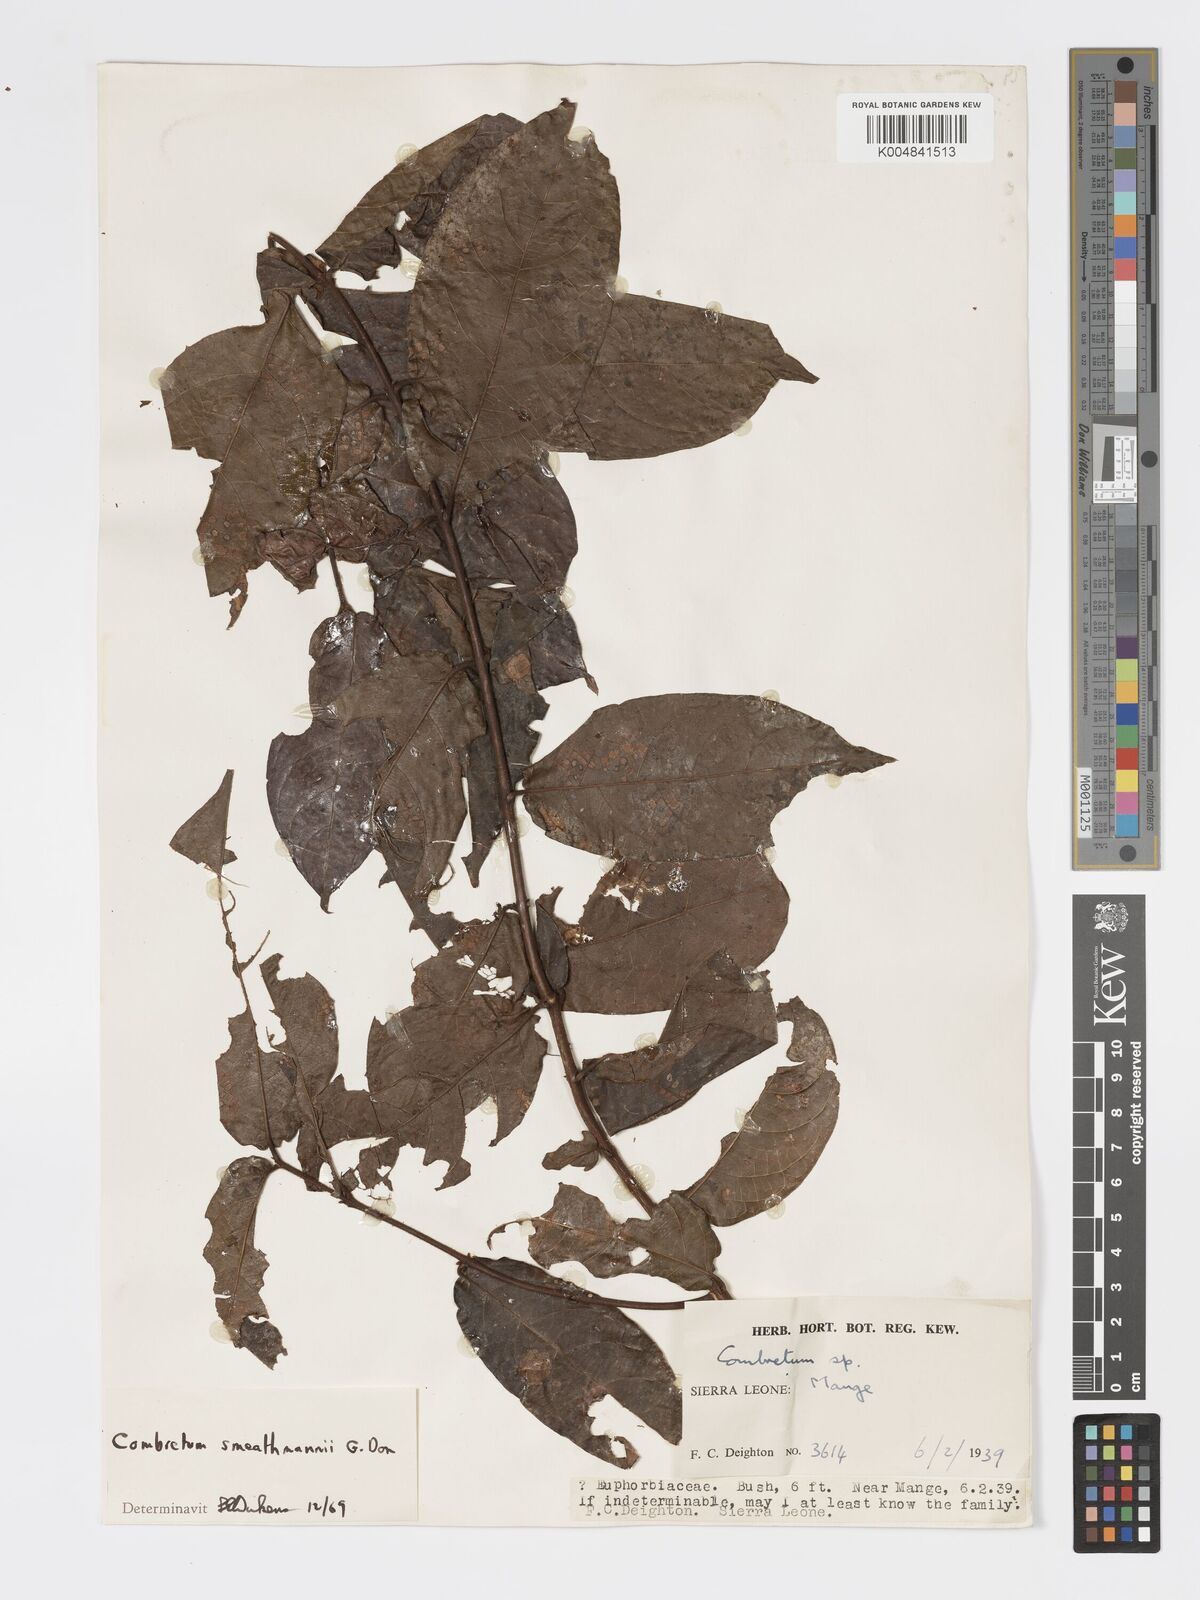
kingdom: Plantae
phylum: Tracheophyta
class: Magnoliopsida
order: Myrtales
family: Combretaceae
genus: Combretum
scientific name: Combretum mucronatum
